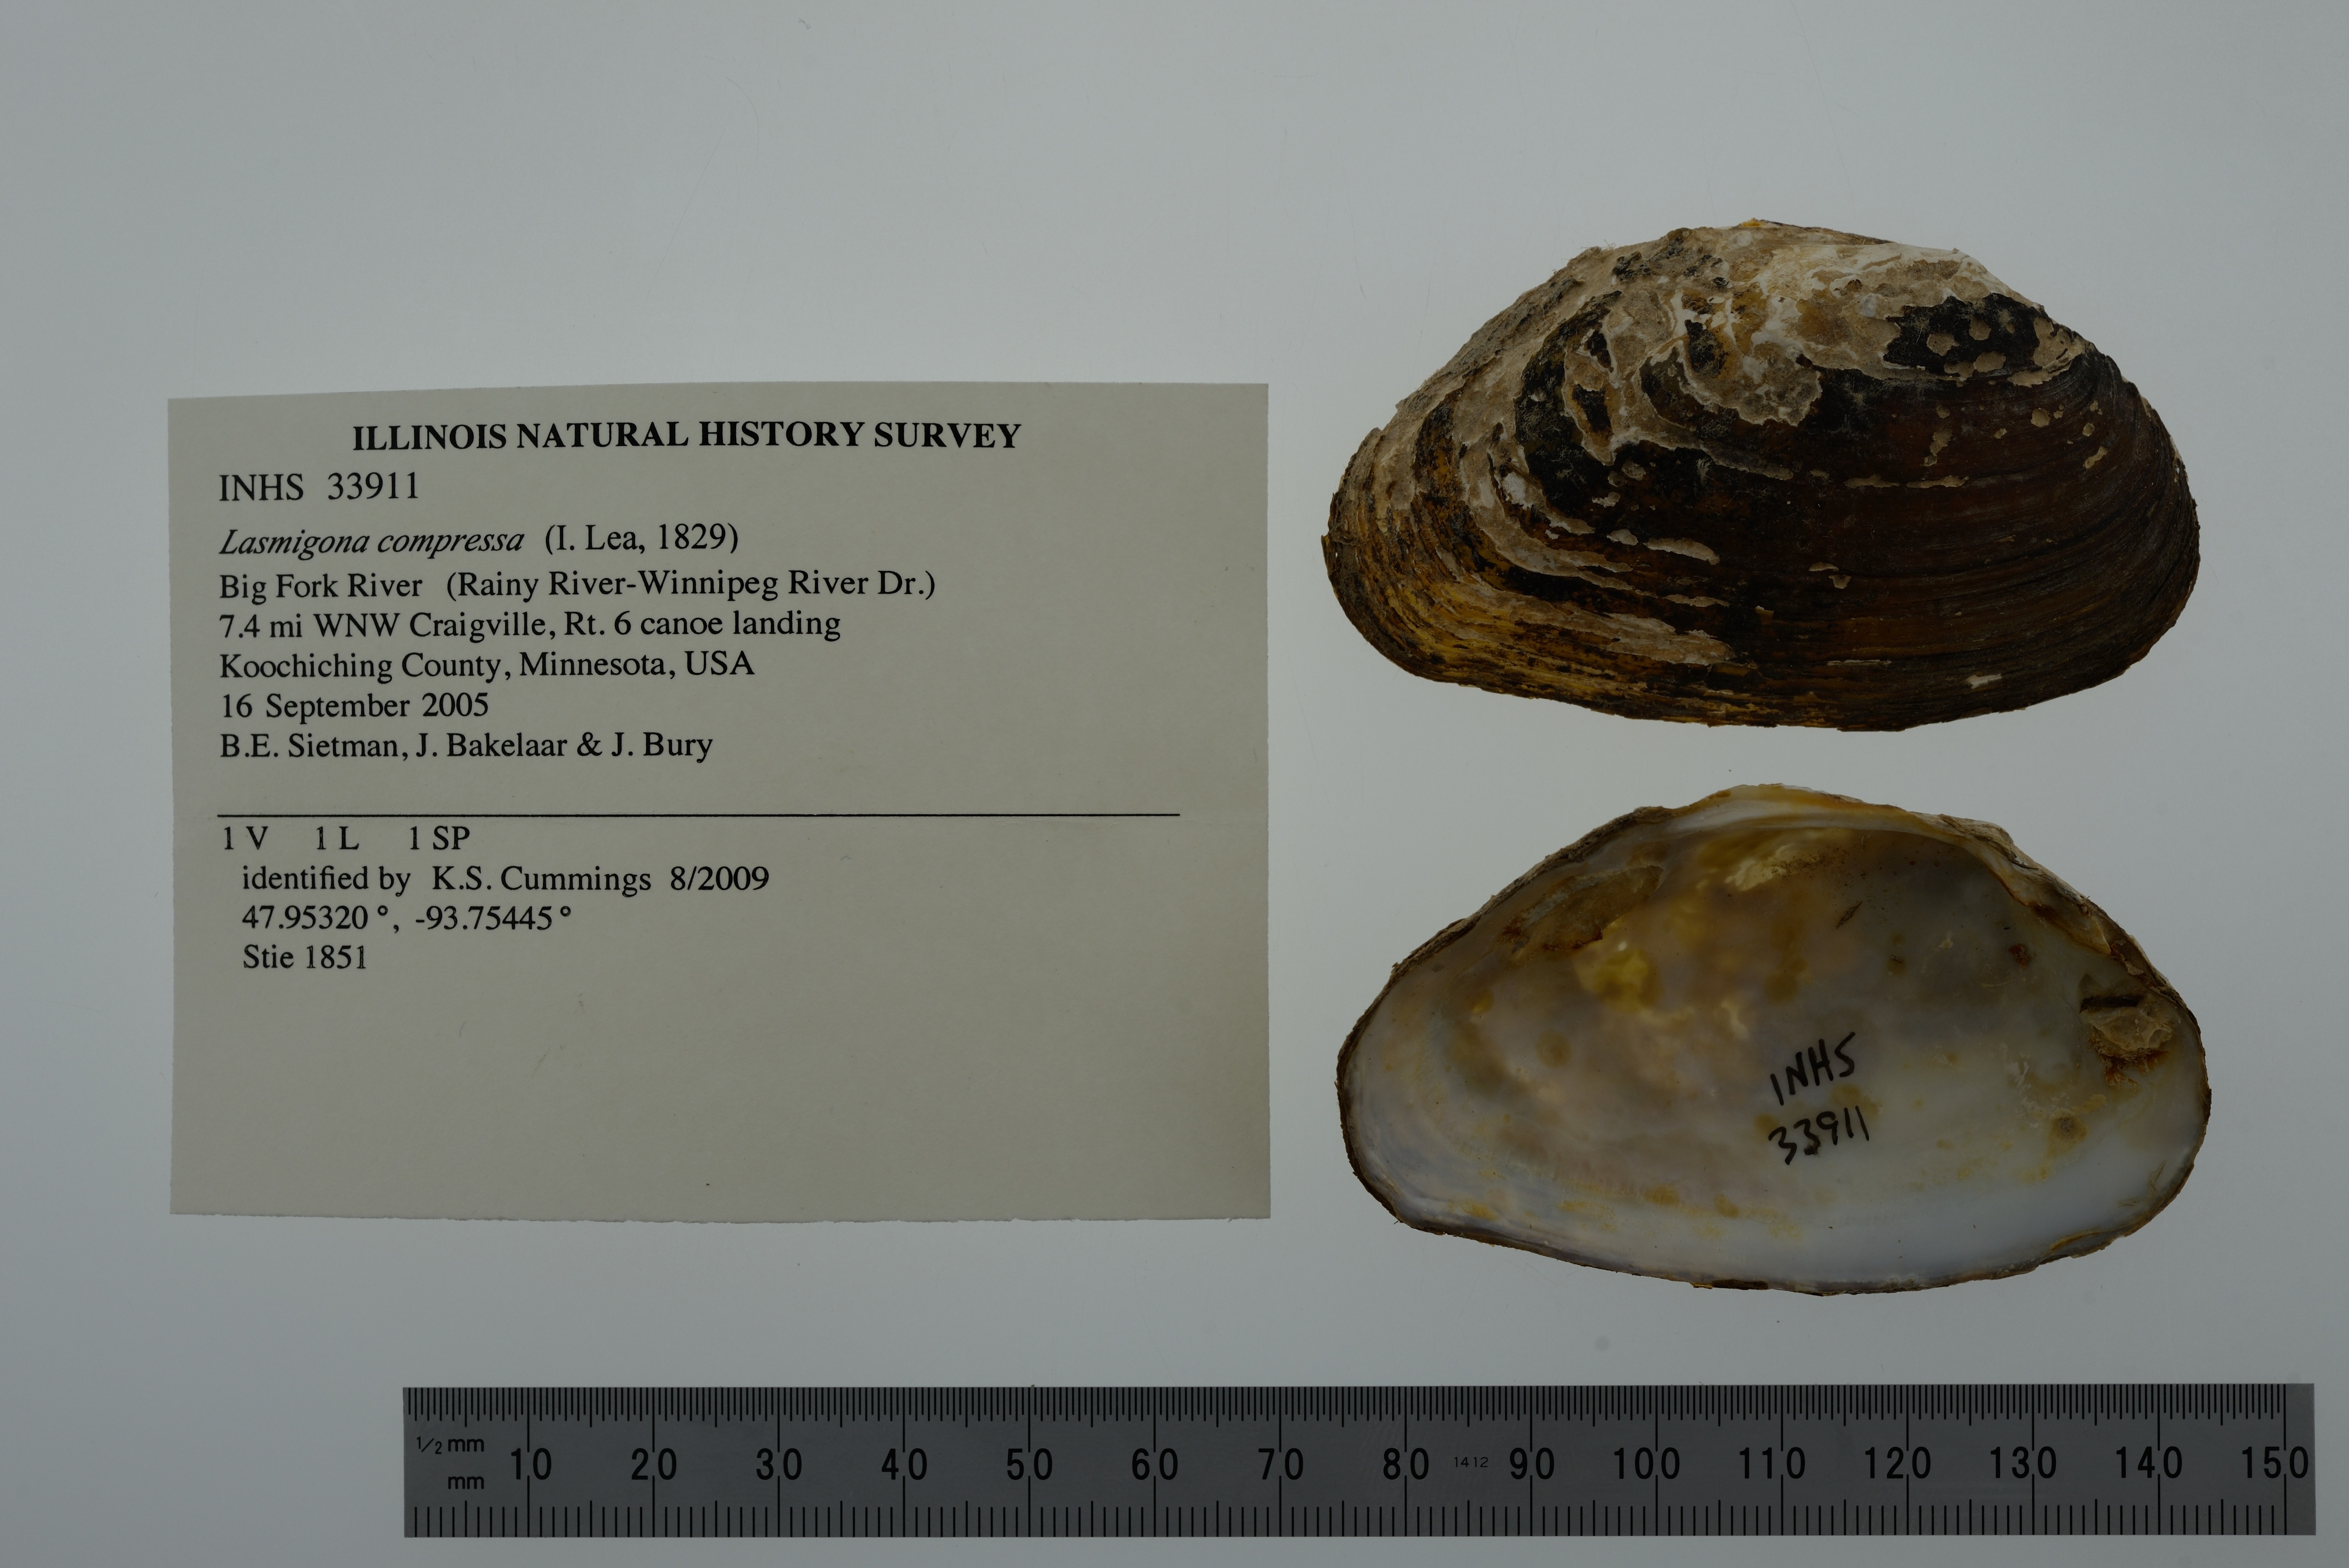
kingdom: Animalia
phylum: Mollusca
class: Bivalvia
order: Unionida
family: Unionidae
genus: Lasmigona
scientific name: Lasmigona compressa
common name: Creek heelsplitter
